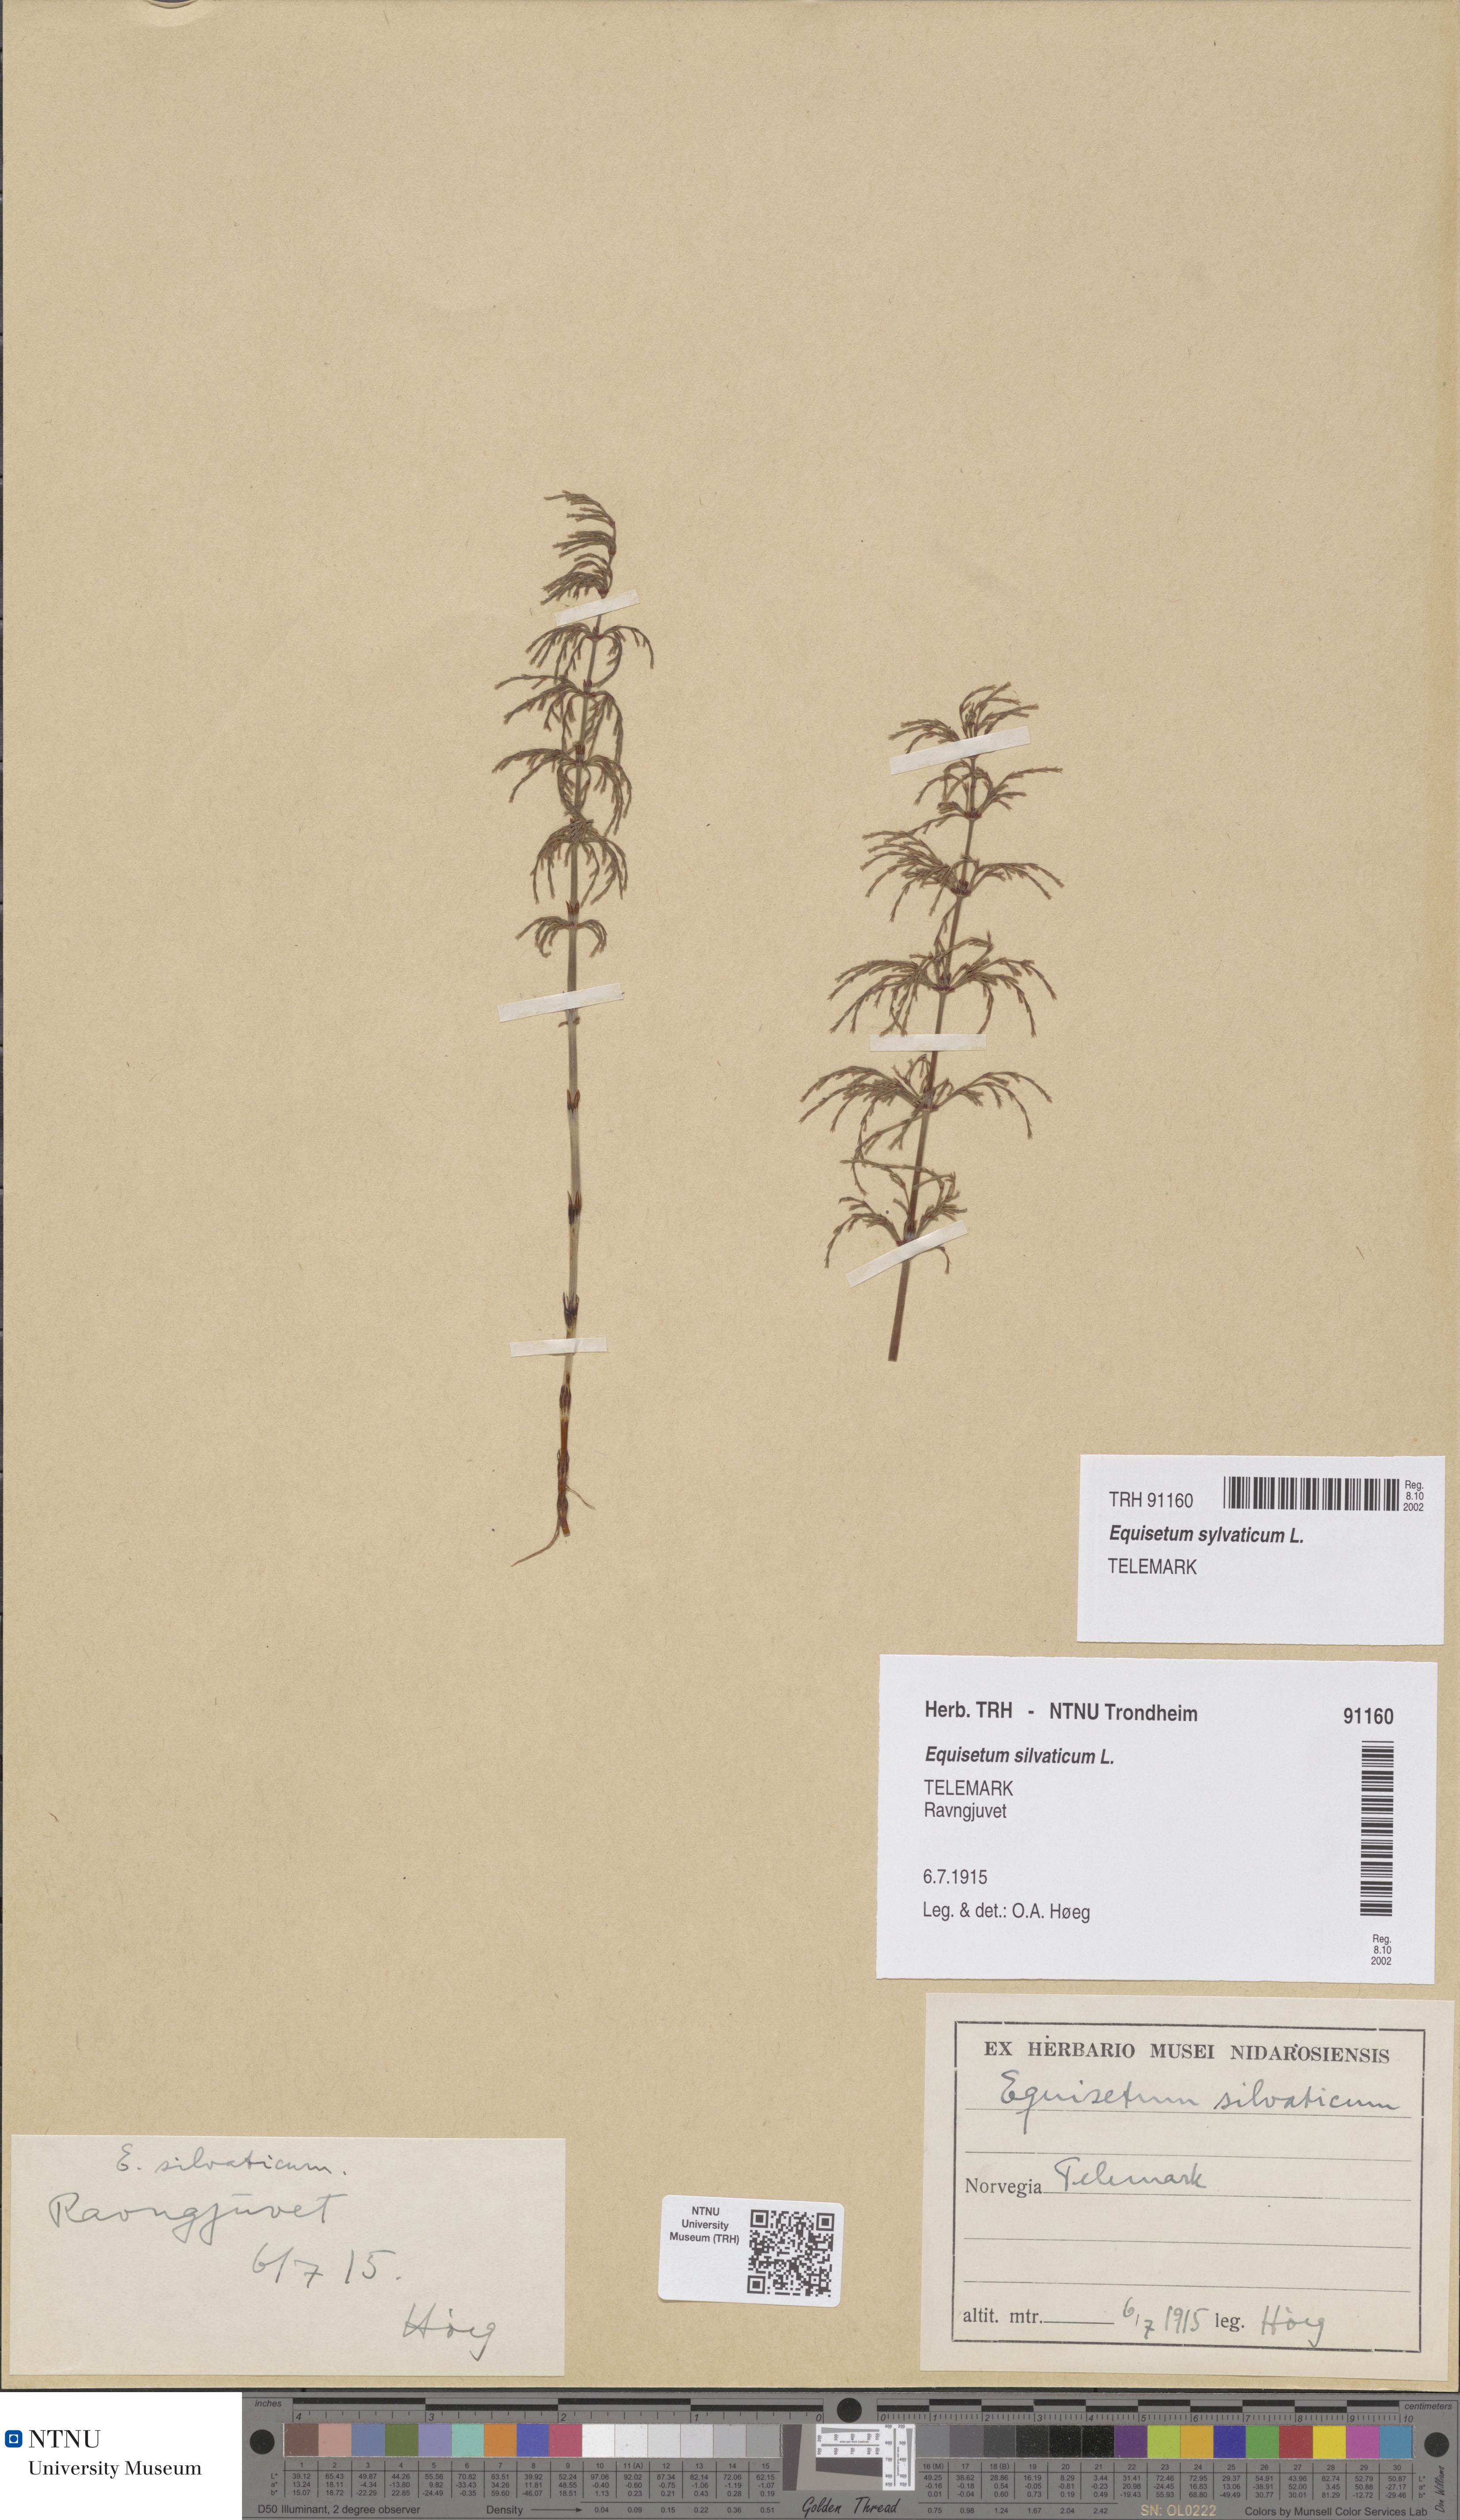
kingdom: Plantae
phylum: Tracheophyta
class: Polypodiopsida
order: Equisetales
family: Equisetaceae
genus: Equisetum
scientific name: Equisetum sylvaticum
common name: Wood horsetail
